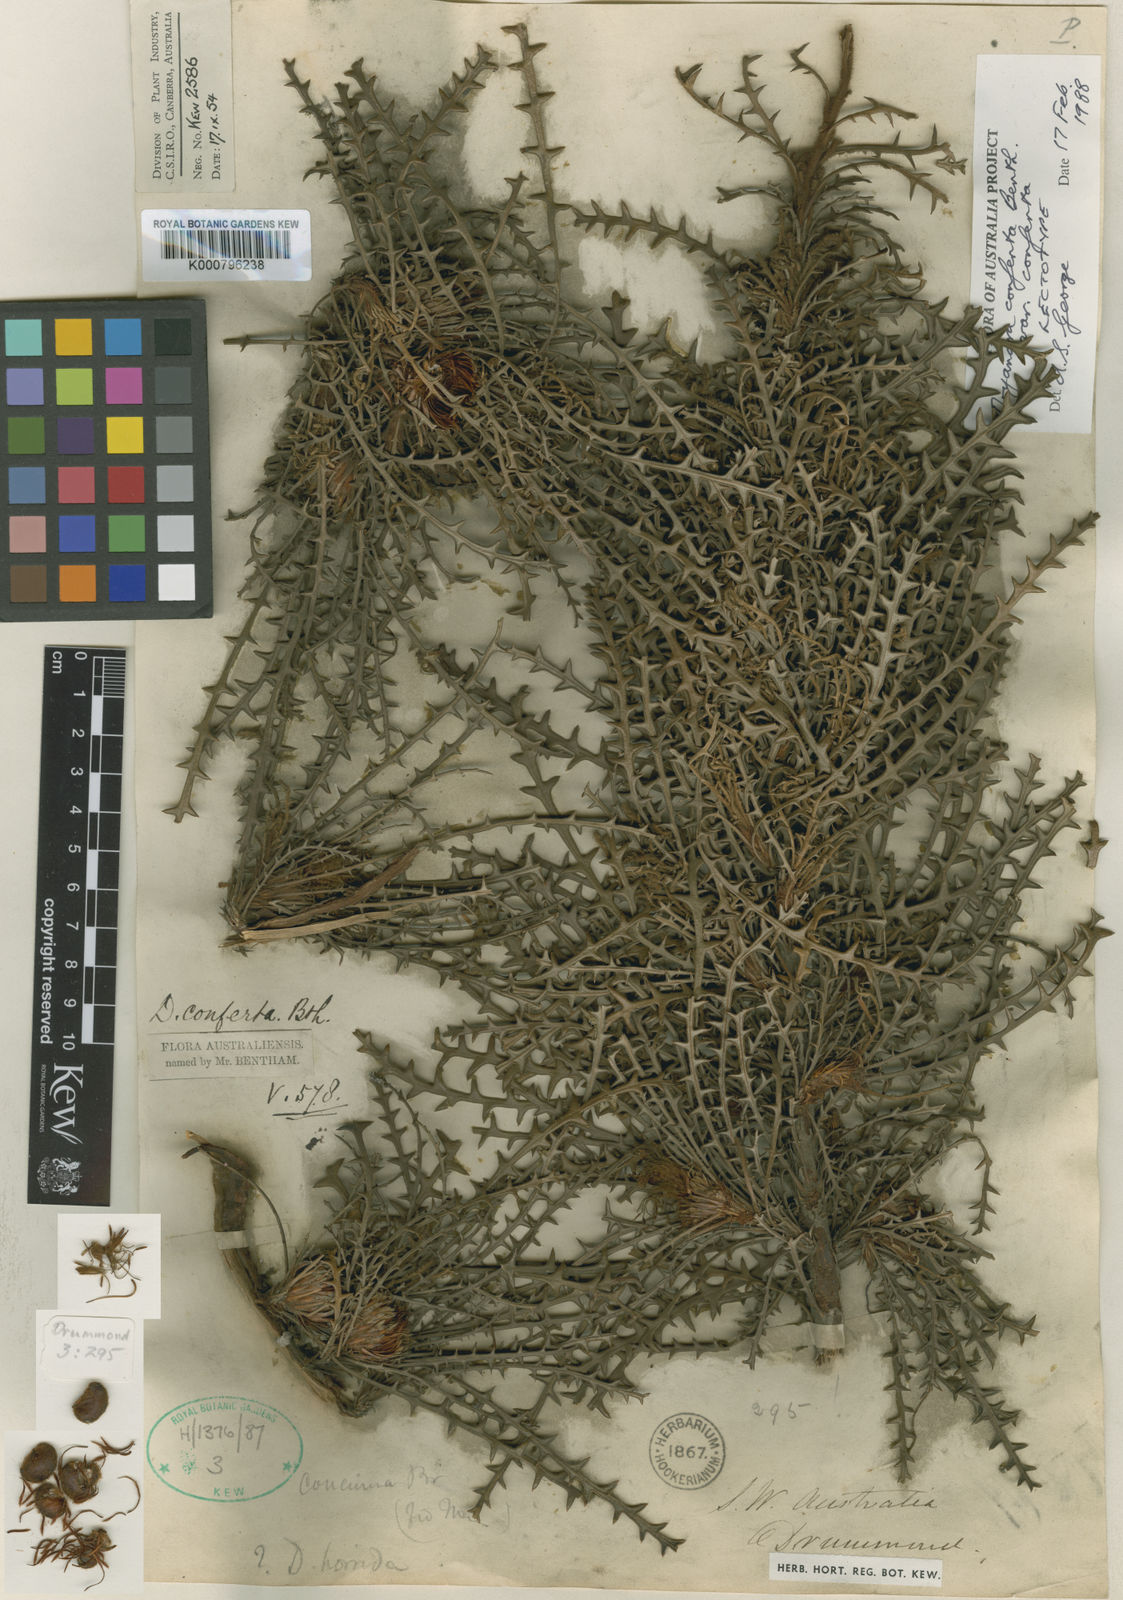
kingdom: Plantae
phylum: Tracheophyta
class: Magnoliopsida
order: Proteales
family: Proteaceae
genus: Banksia
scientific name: Banksia densa
